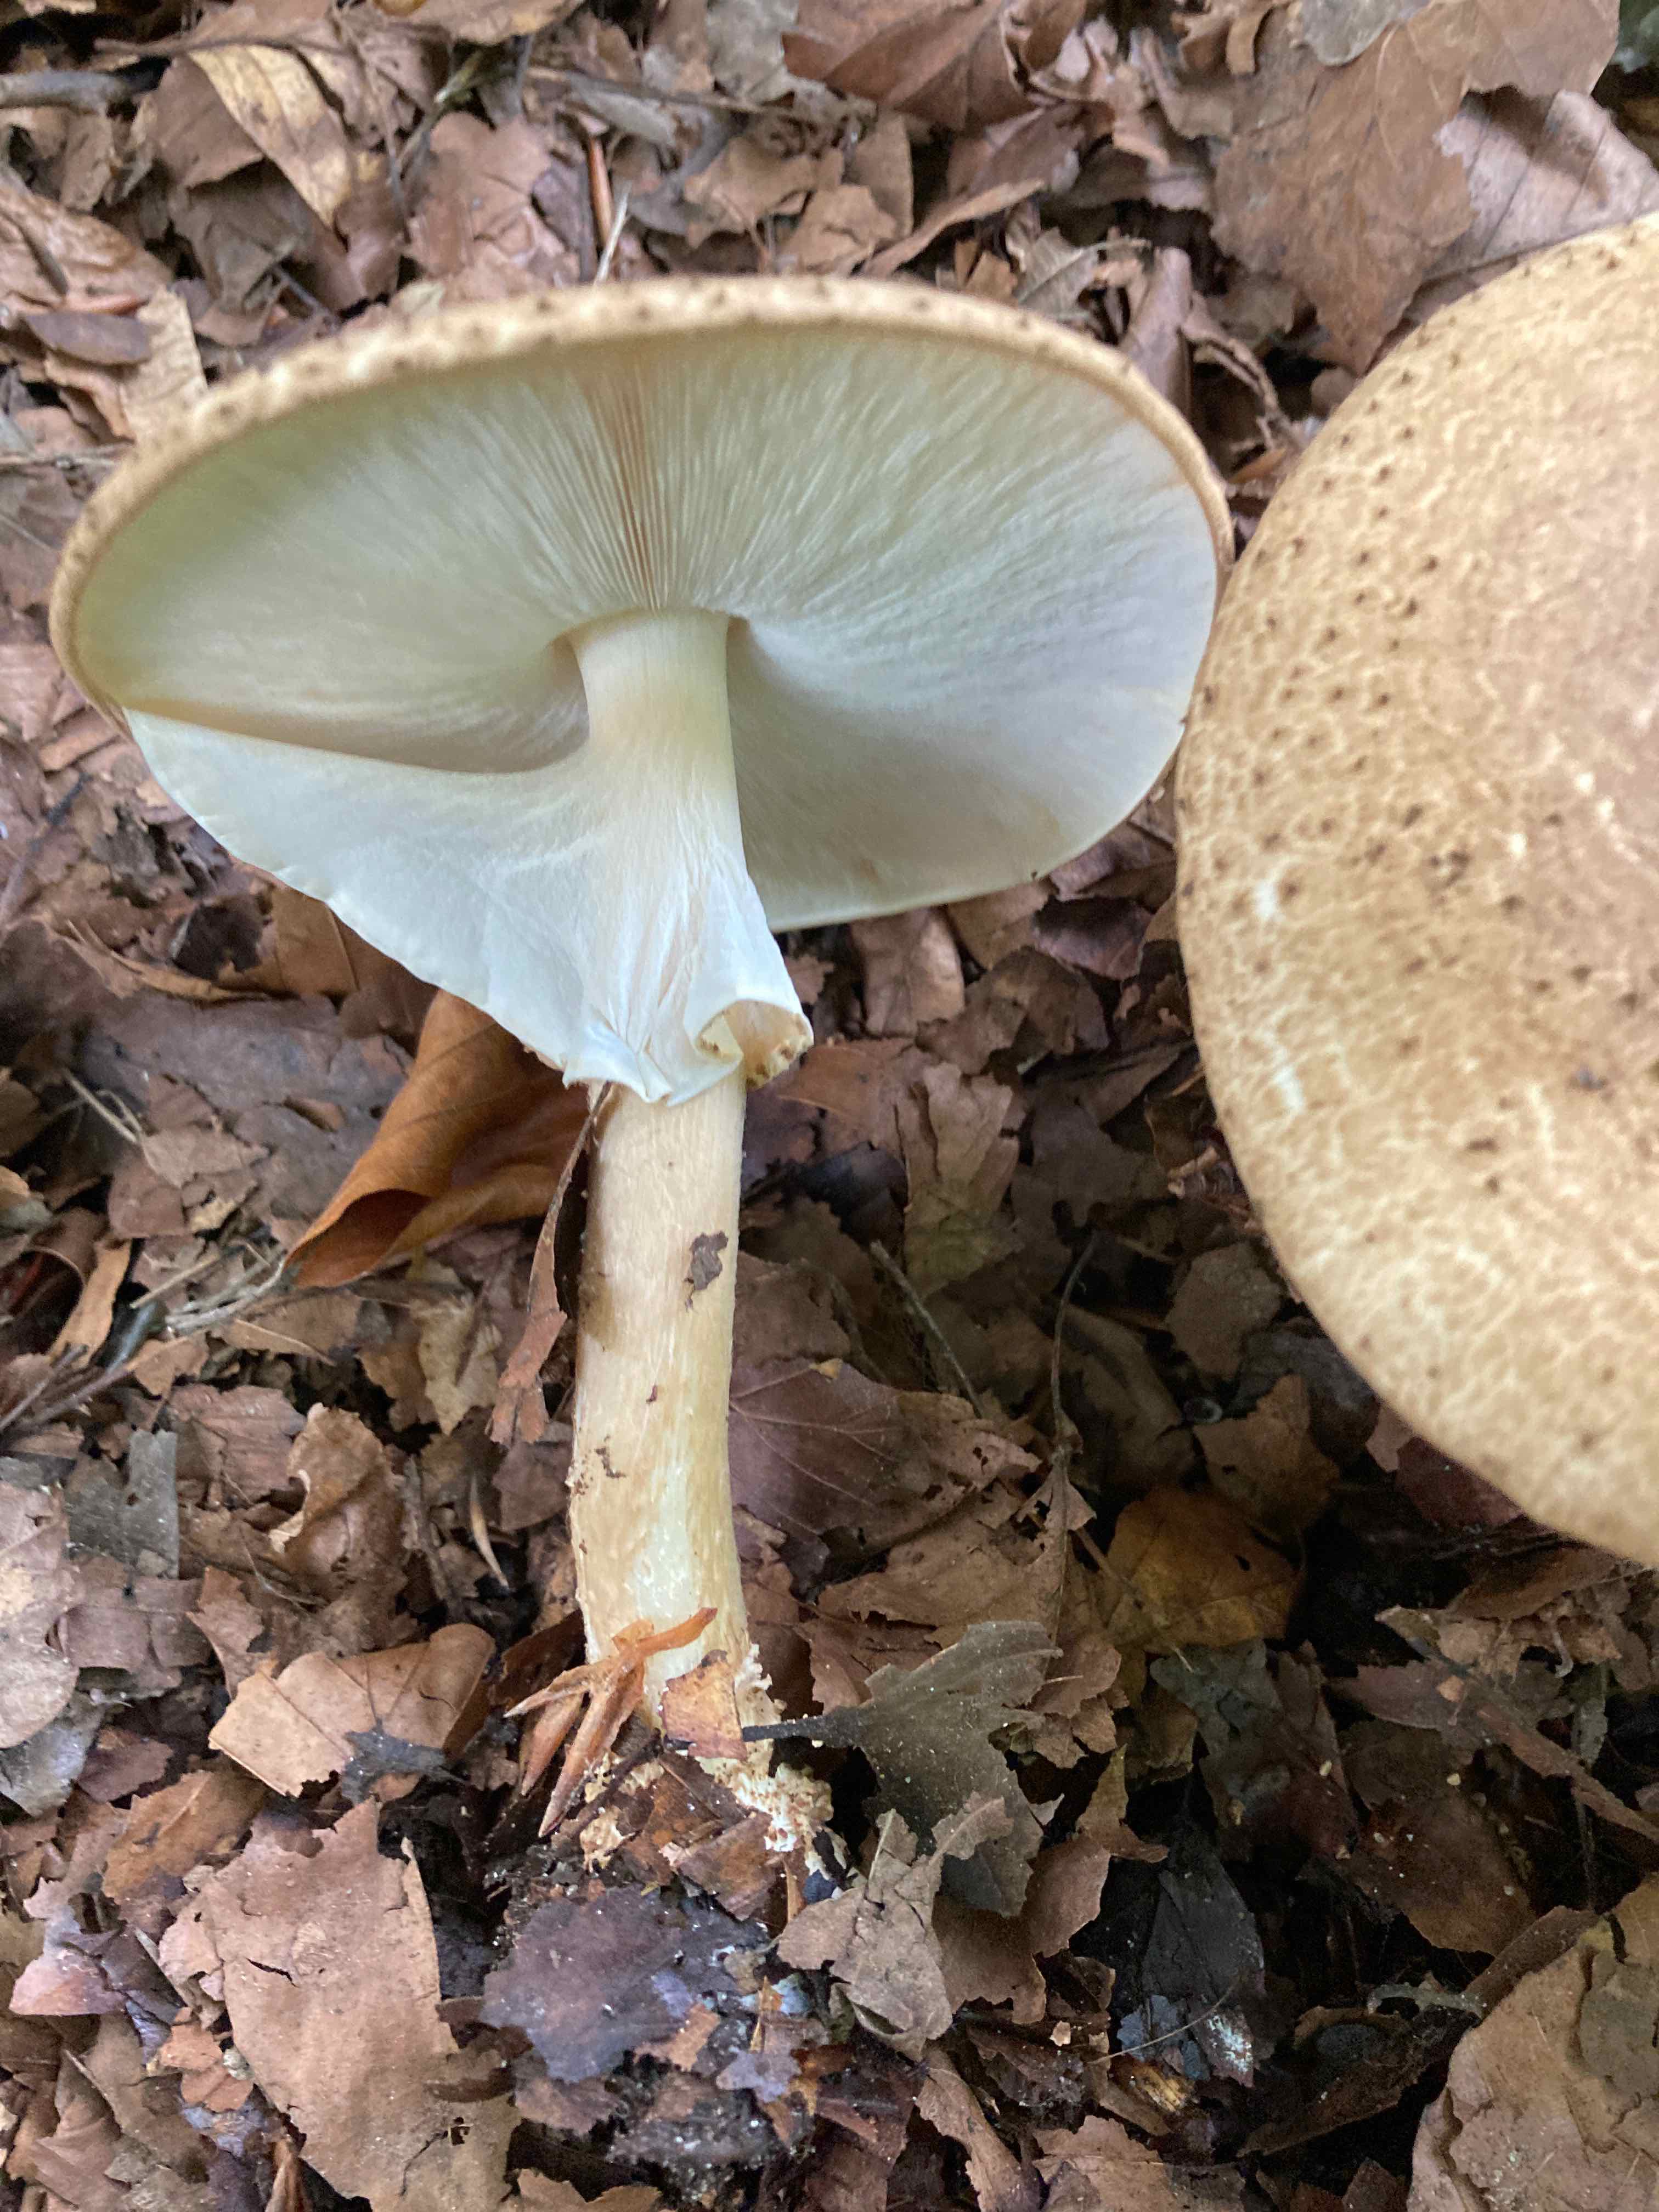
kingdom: Fungi
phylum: Basidiomycota
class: Agaricomycetes
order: Agaricales
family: Agaricaceae
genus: Echinoderma
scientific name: Echinoderma asperum
